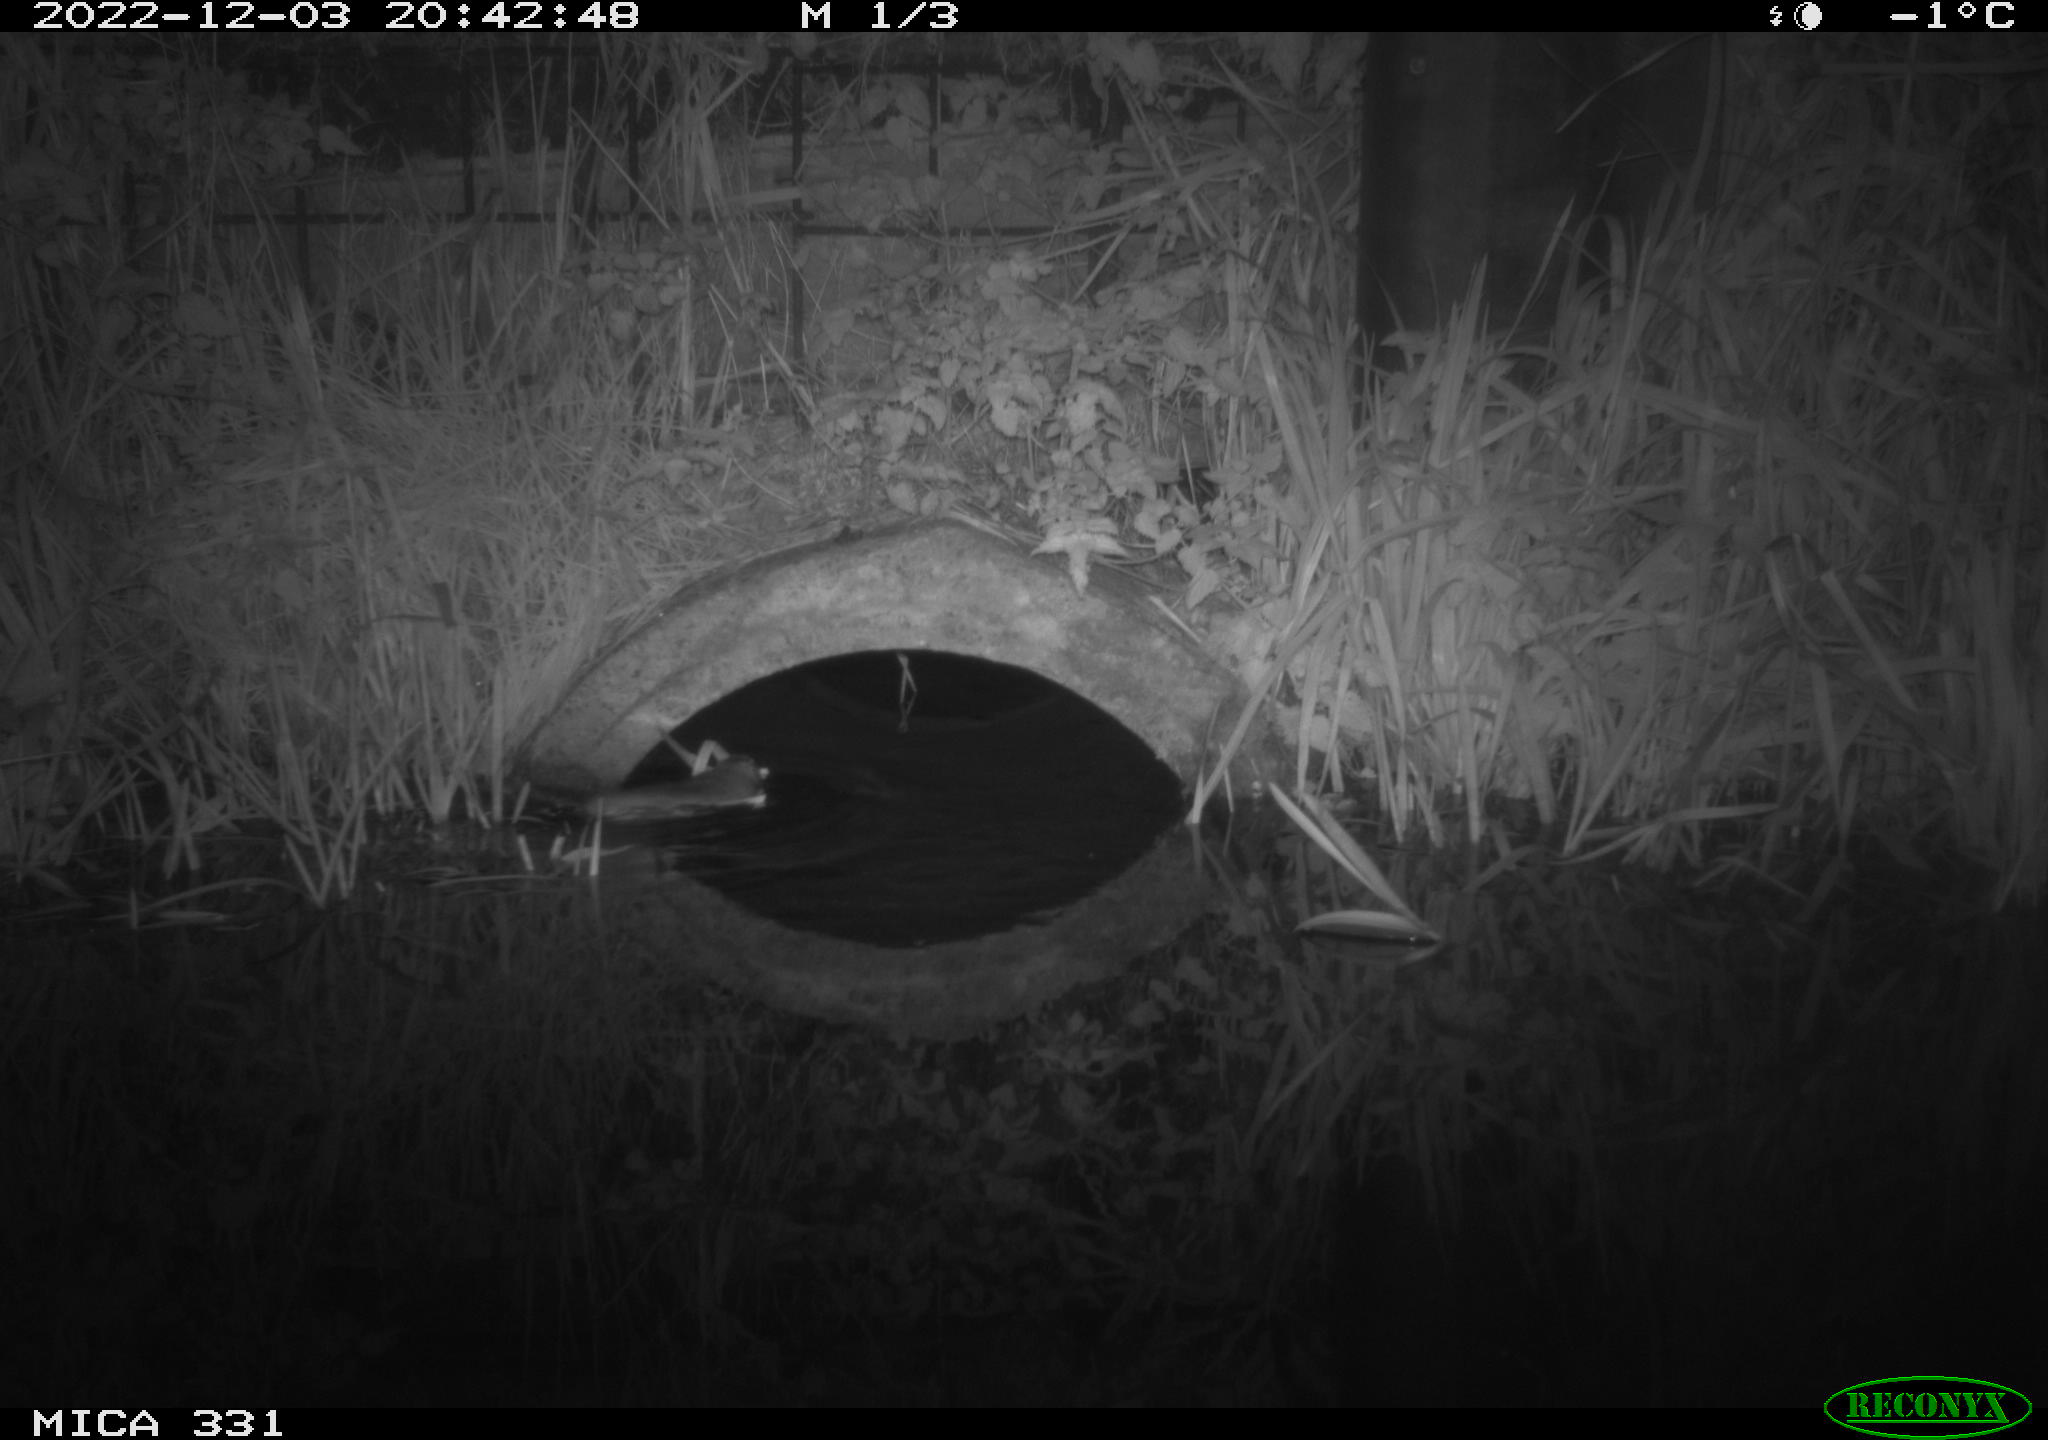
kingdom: Animalia
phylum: Chordata
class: Mammalia
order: Rodentia
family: Muridae
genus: Rattus
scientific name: Rattus norvegicus
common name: Brown rat
